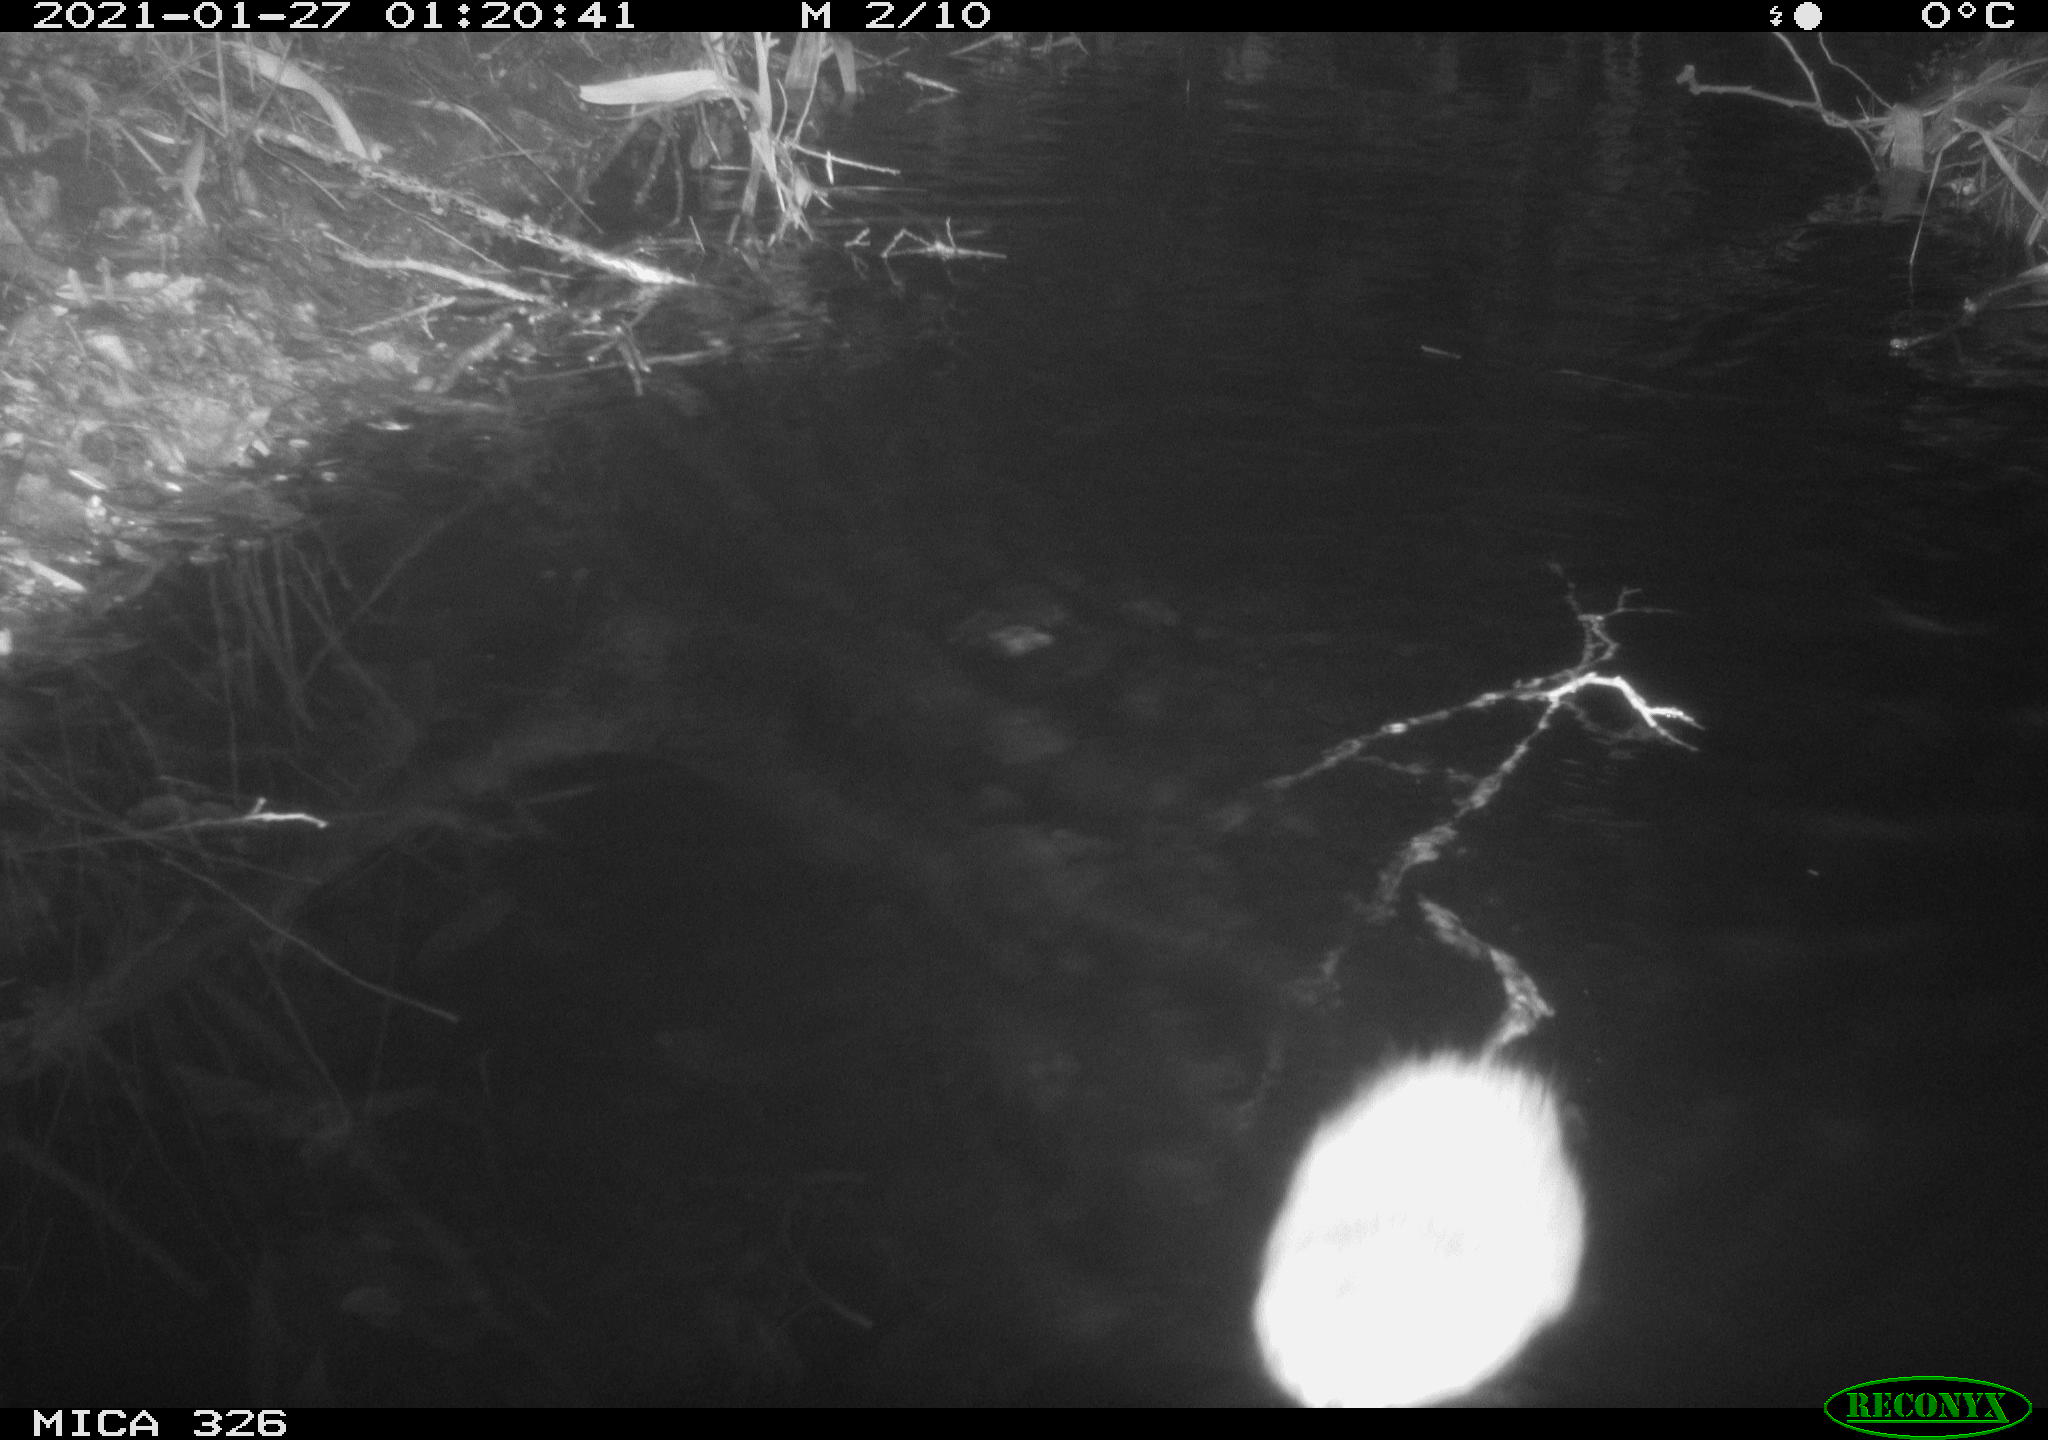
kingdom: Animalia
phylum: Chordata
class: Mammalia
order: Rodentia
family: Cricetidae
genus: Ondatra
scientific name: Ondatra zibethicus
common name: Muskrat
